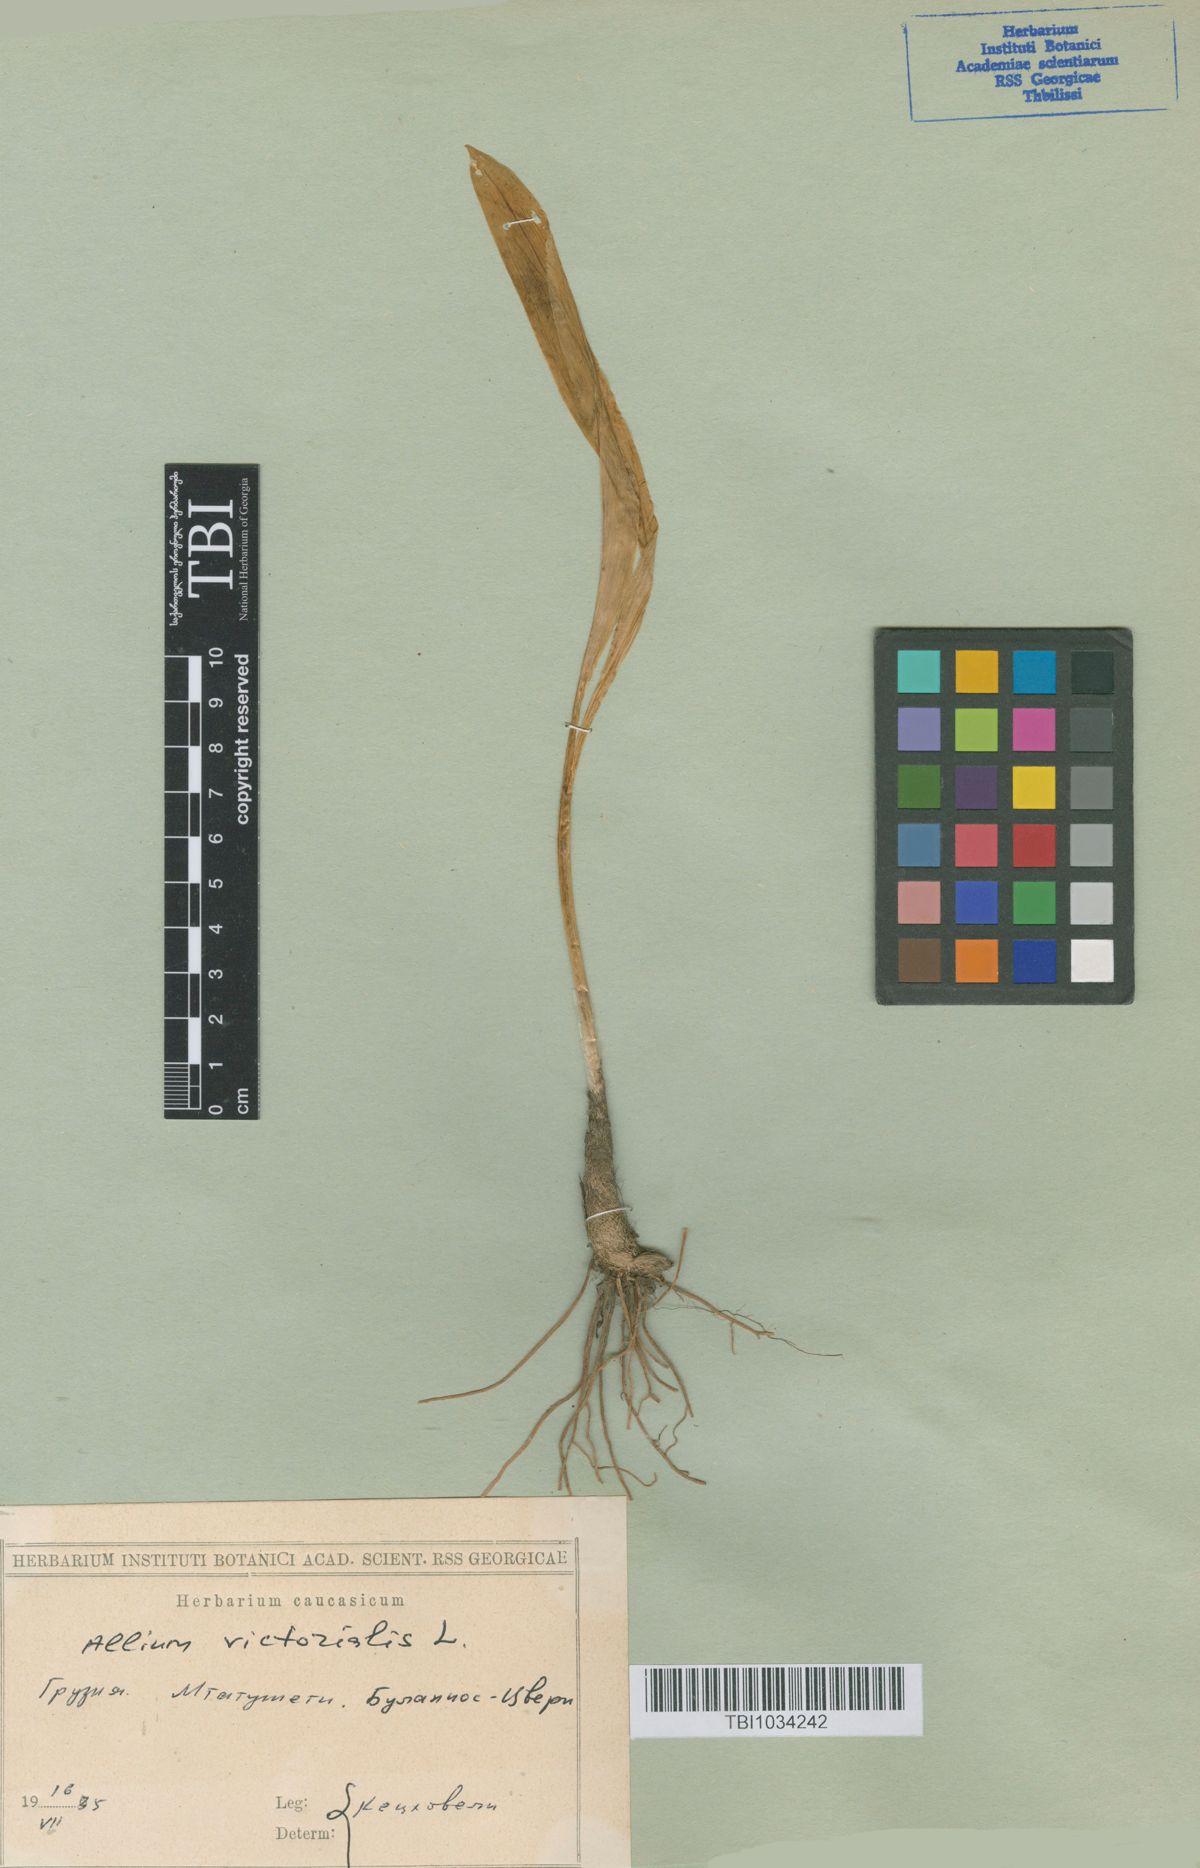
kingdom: Plantae
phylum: Tracheophyta
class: Liliopsida
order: Asparagales
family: Amaryllidaceae
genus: Allium
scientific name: Allium victorialis
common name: Alpine leek
